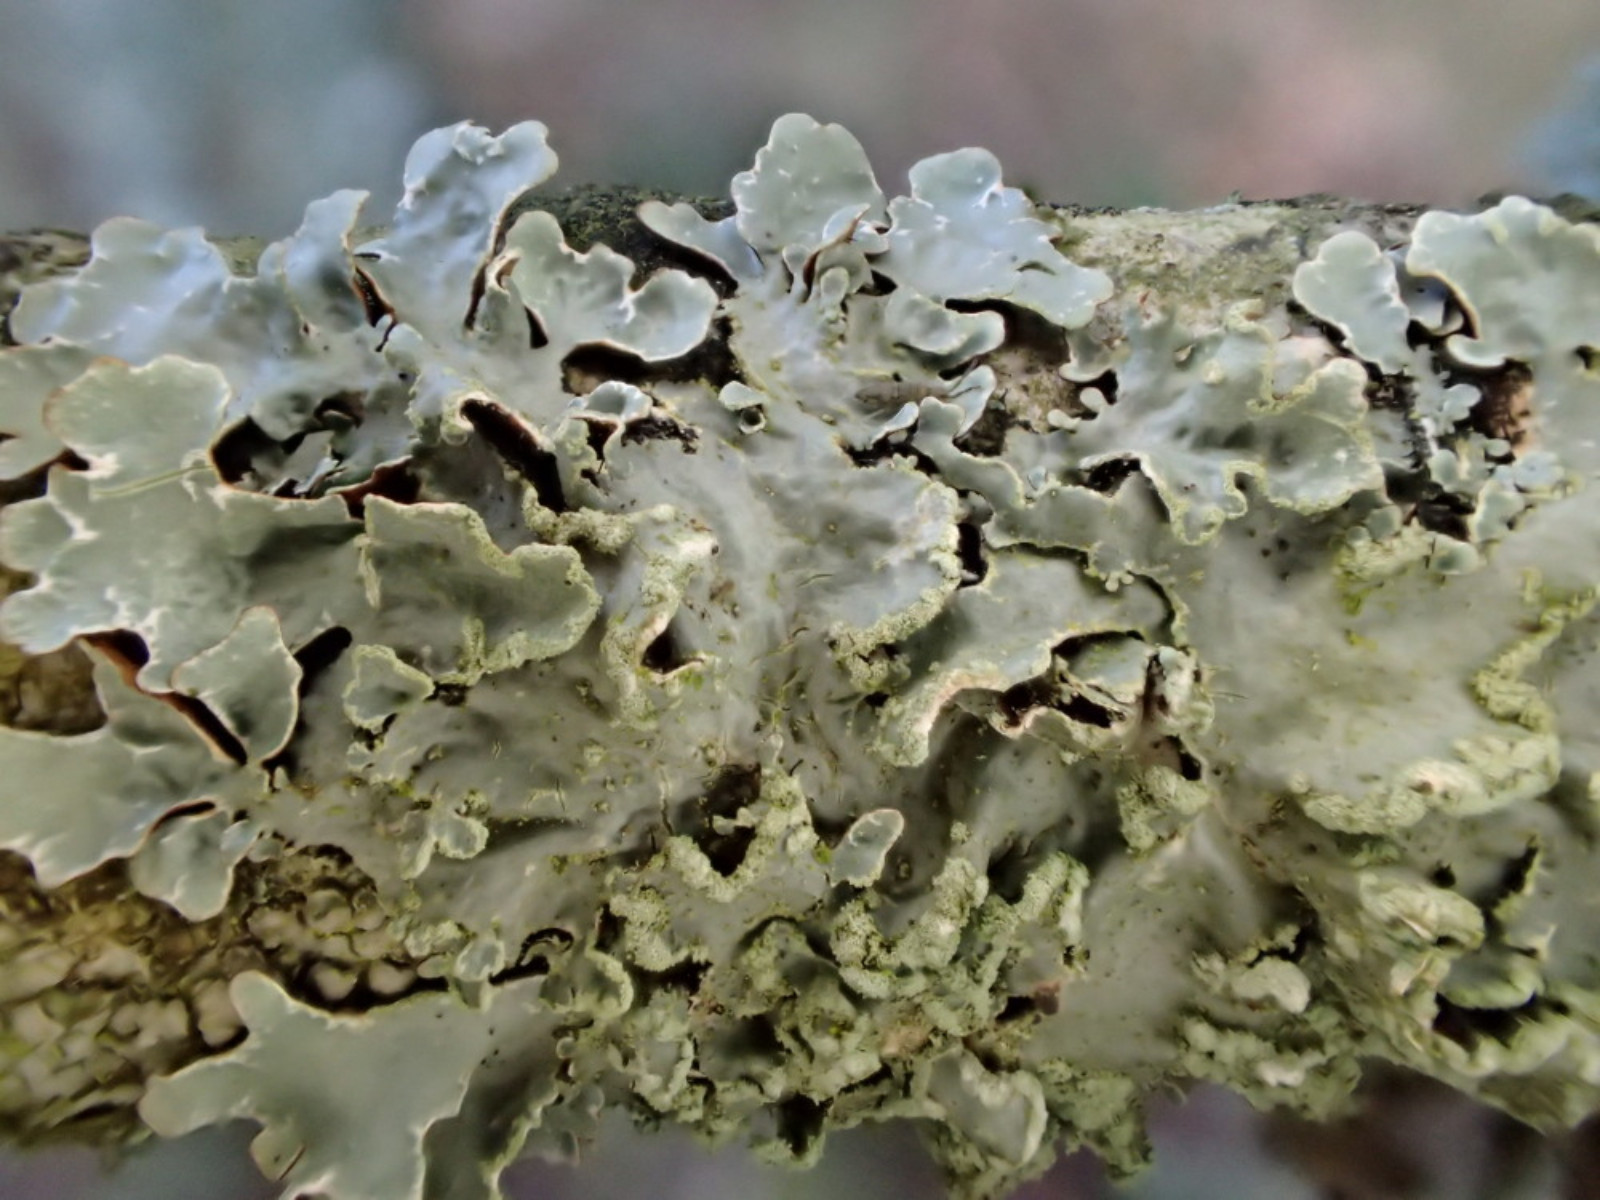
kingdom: Fungi
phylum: Ascomycota
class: Lecanoromycetes
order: Lecanorales
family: Parmeliaceae
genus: Parmelia
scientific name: Parmelia sulcata
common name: rynket skållav
